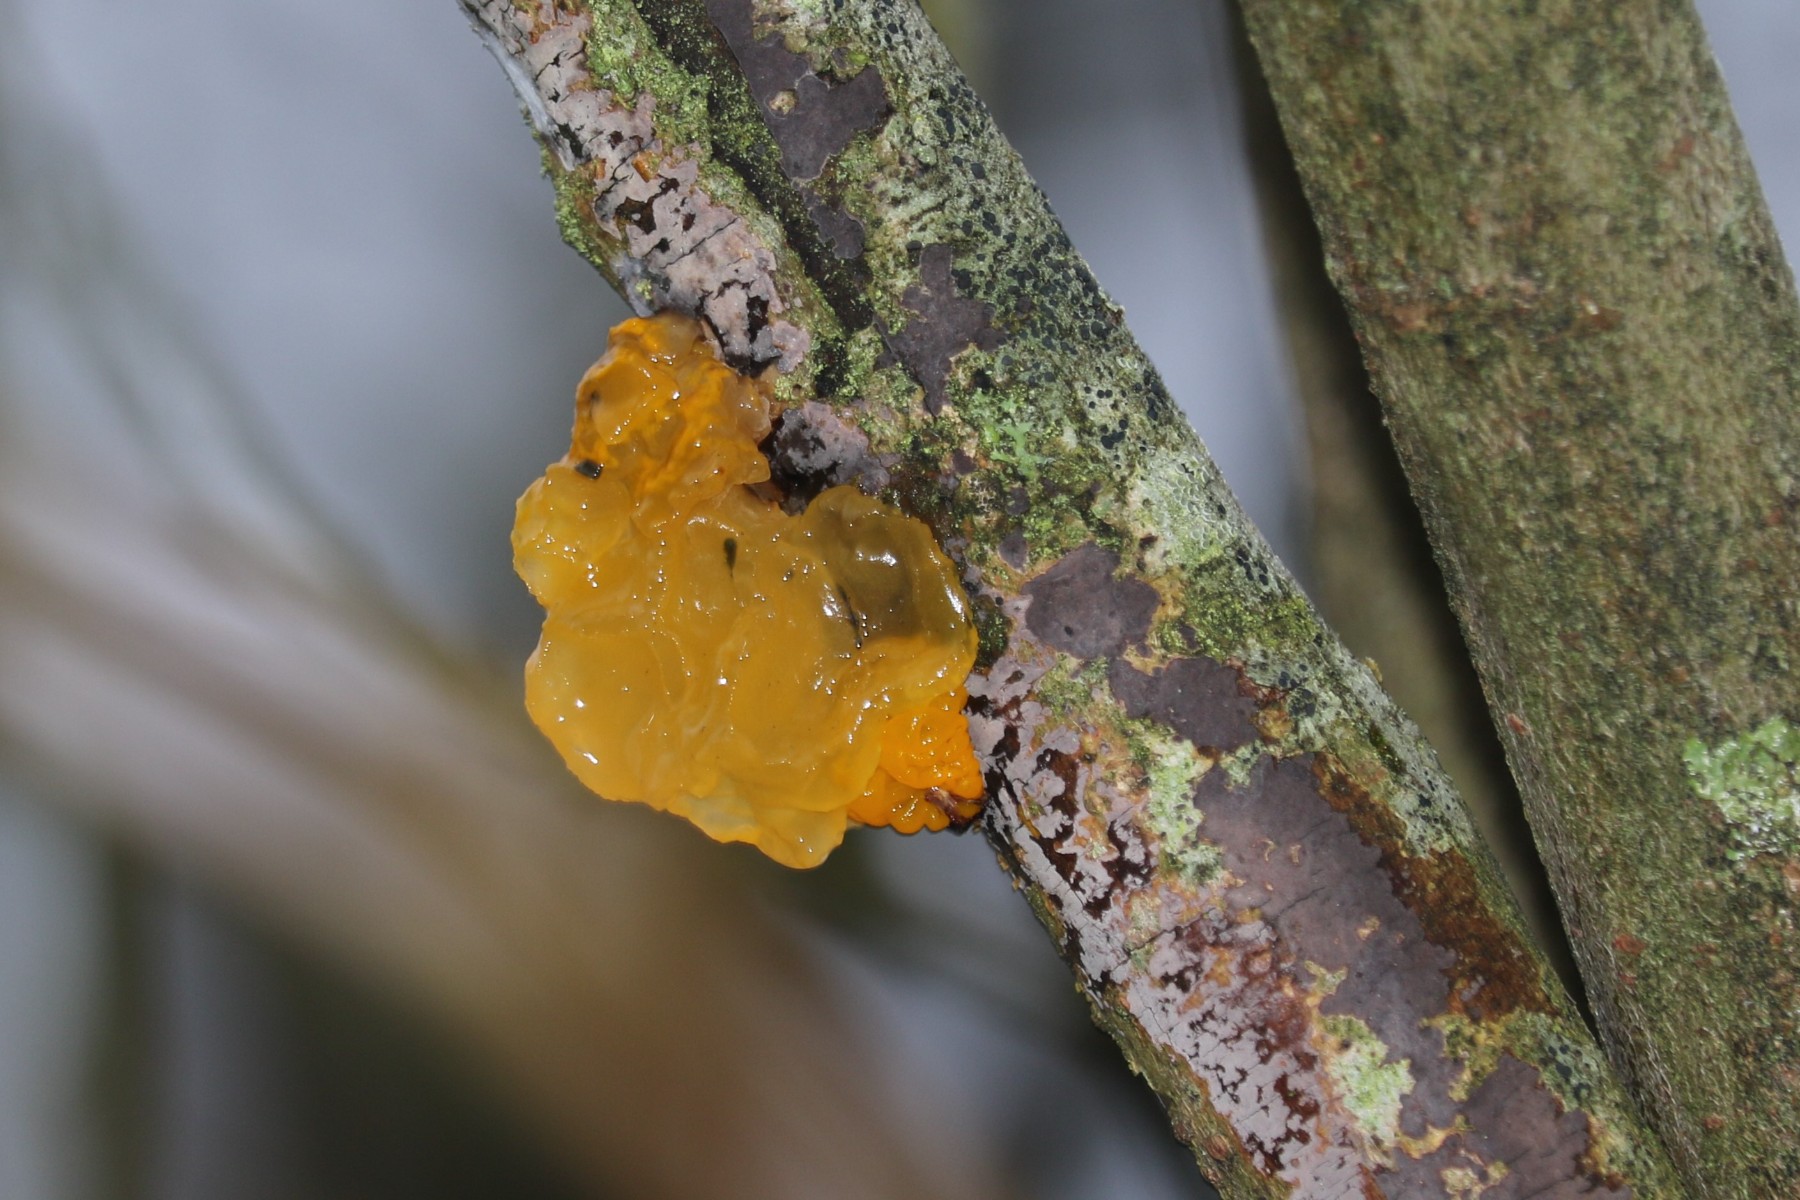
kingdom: Fungi
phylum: Basidiomycota
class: Tremellomycetes
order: Tremellales
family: Tremellaceae
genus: Tremella
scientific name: Tremella mesenterica
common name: gul bævresvamp
